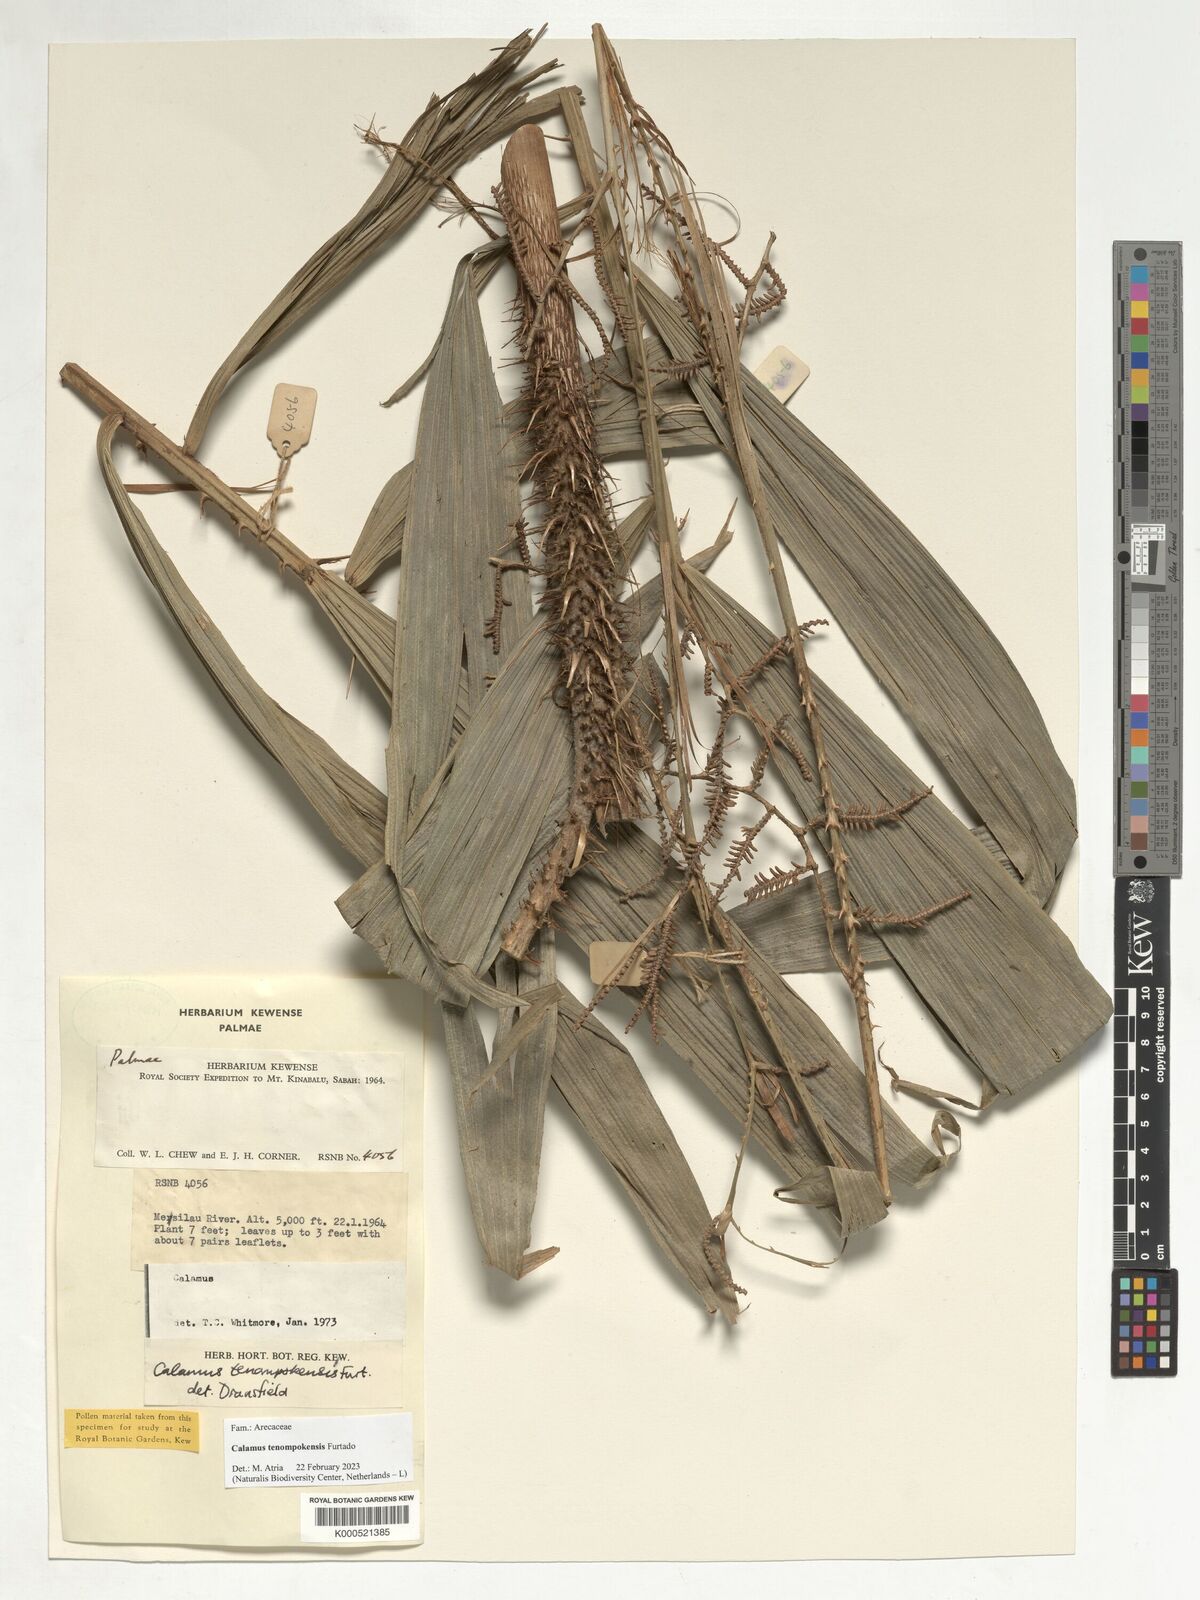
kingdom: Plantae
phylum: Tracheophyta
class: Liliopsida
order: Arecales
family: Arecaceae
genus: Calamus
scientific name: Calamus tenompokensis
